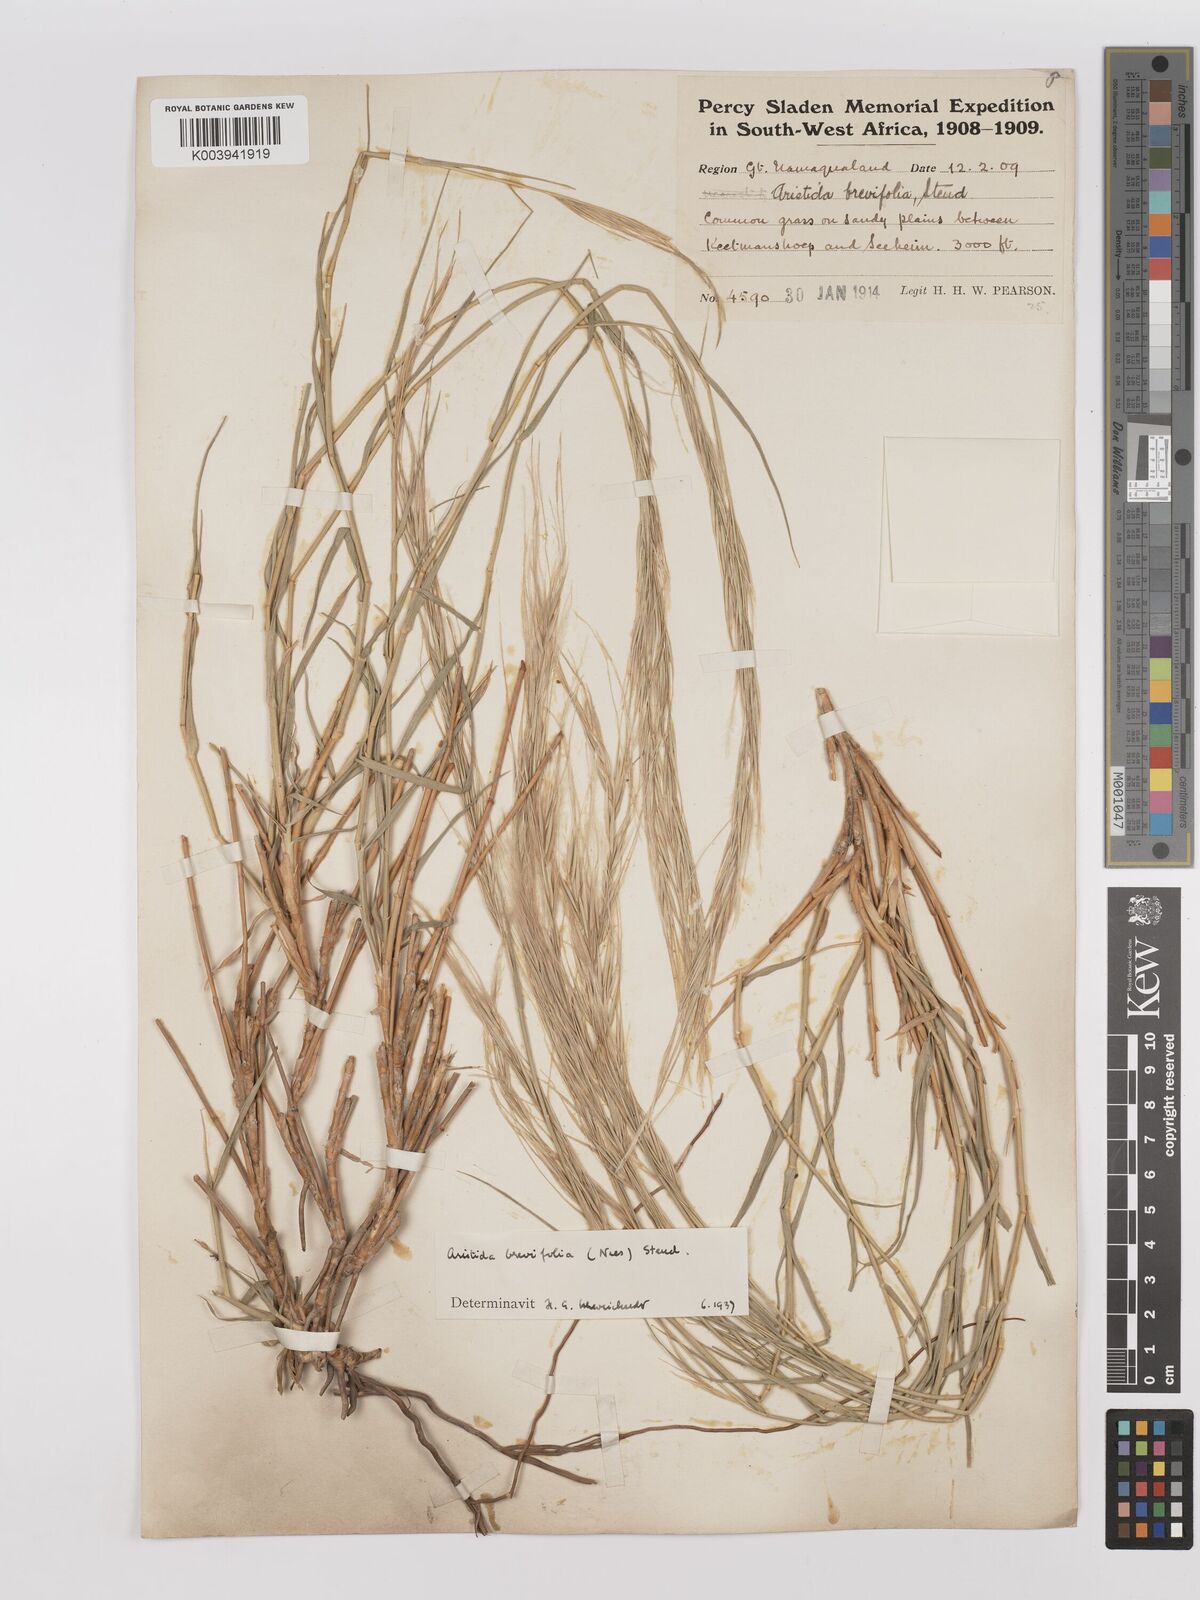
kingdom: Plantae
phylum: Tracheophyta
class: Liliopsida
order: Poales
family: Poaceae
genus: Stipagrostis
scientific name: Stipagrostis brevifolia
